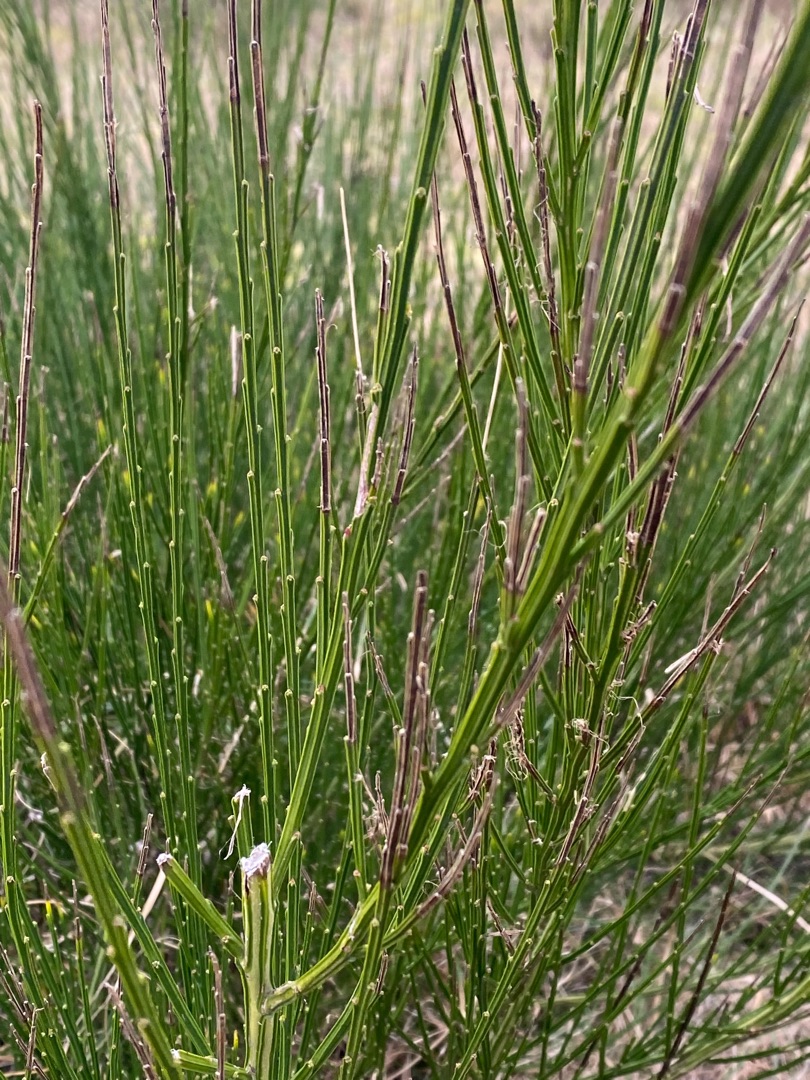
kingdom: Plantae
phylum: Tracheophyta
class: Magnoliopsida
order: Fabales
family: Fabaceae
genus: Cytisus
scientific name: Cytisus scoparius
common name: Almindelig gyvel
